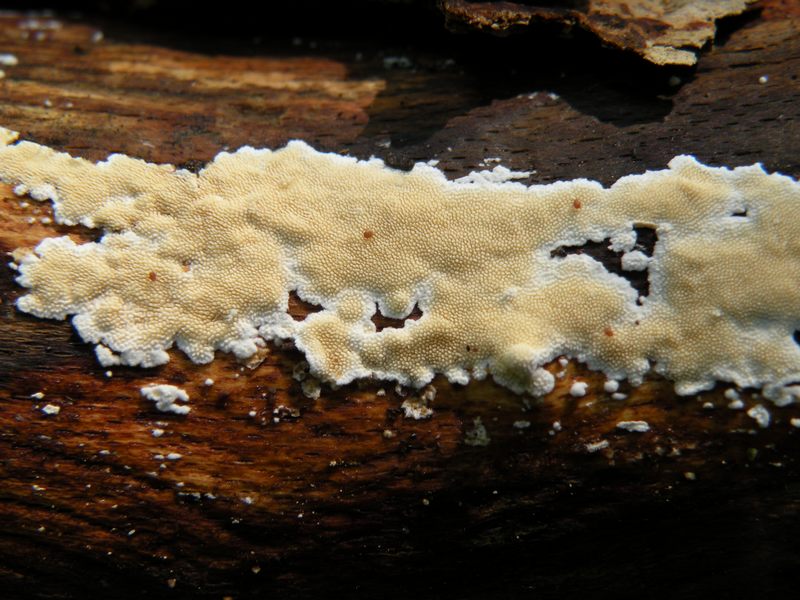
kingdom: Fungi
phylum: Basidiomycota
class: Agaricomycetes
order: Polyporales
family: Steccherinaceae
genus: Steccherinum
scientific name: Steccherinum ochraceum
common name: almindelig skønpig
